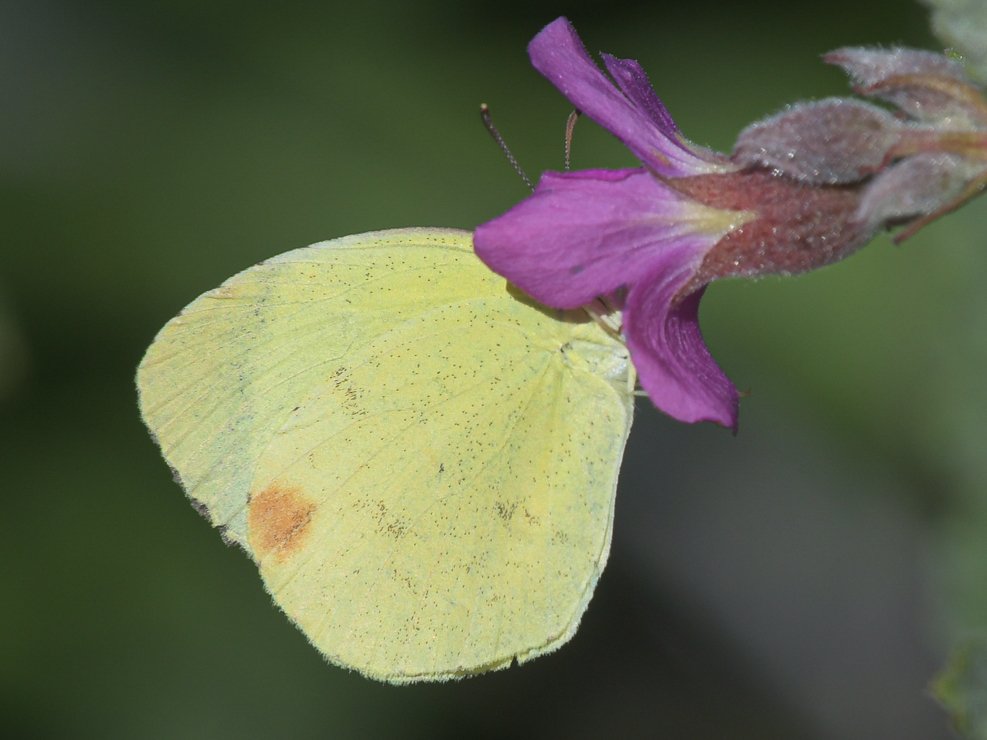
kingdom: Animalia
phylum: Arthropoda
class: Insecta
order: Lepidoptera
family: Pieridae
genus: Pyrisitia
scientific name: Pyrisitia nise
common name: Mimosa Yellow
